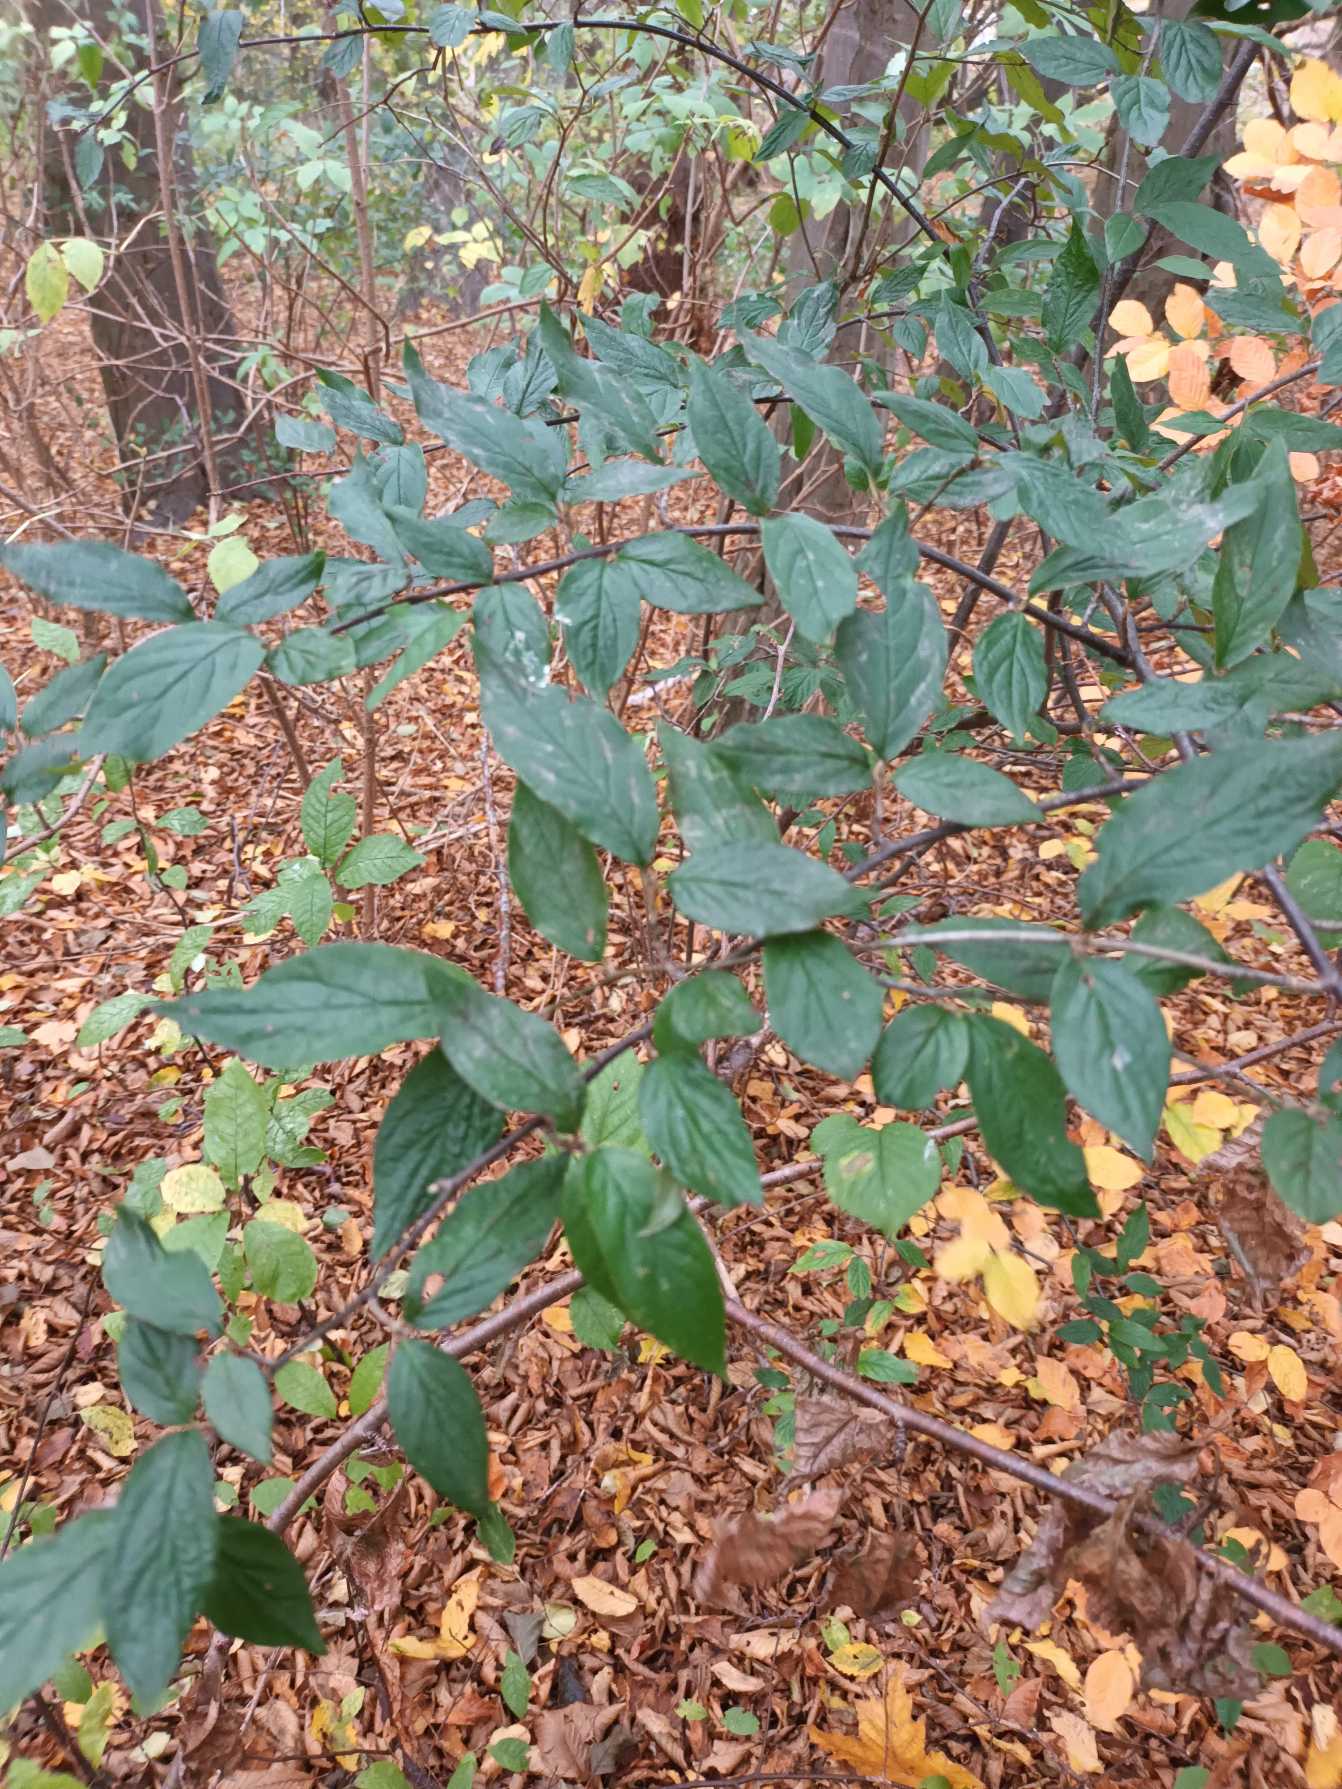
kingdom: Plantae
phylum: Tracheophyta
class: Magnoliopsida
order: Rosales
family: Rosaceae
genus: Cotoneaster
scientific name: Cotoneaster moupinensis
